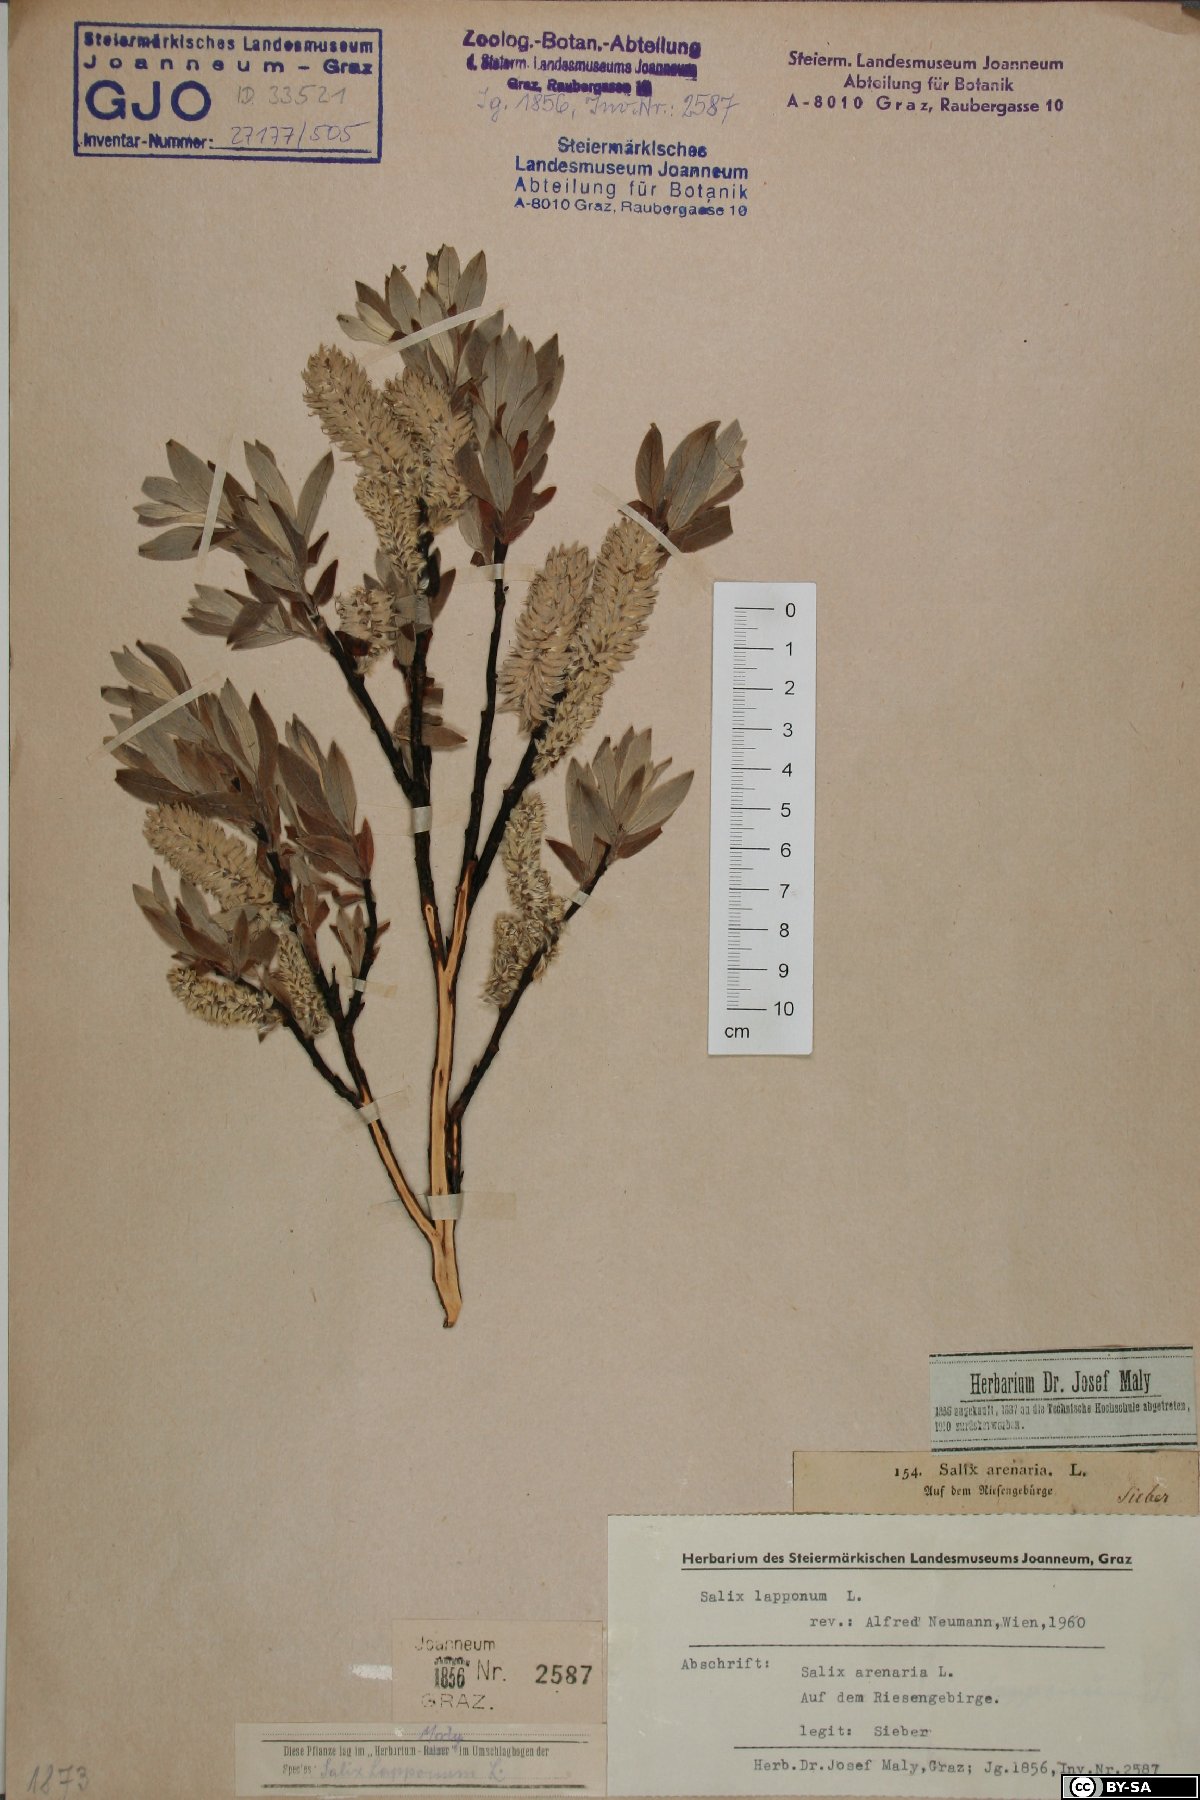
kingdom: Plantae
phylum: Tracheophyta
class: Magnoliopsida
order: Malpighiales
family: Salicaceae
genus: Salix
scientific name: Salix lapponum
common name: Downy willow
